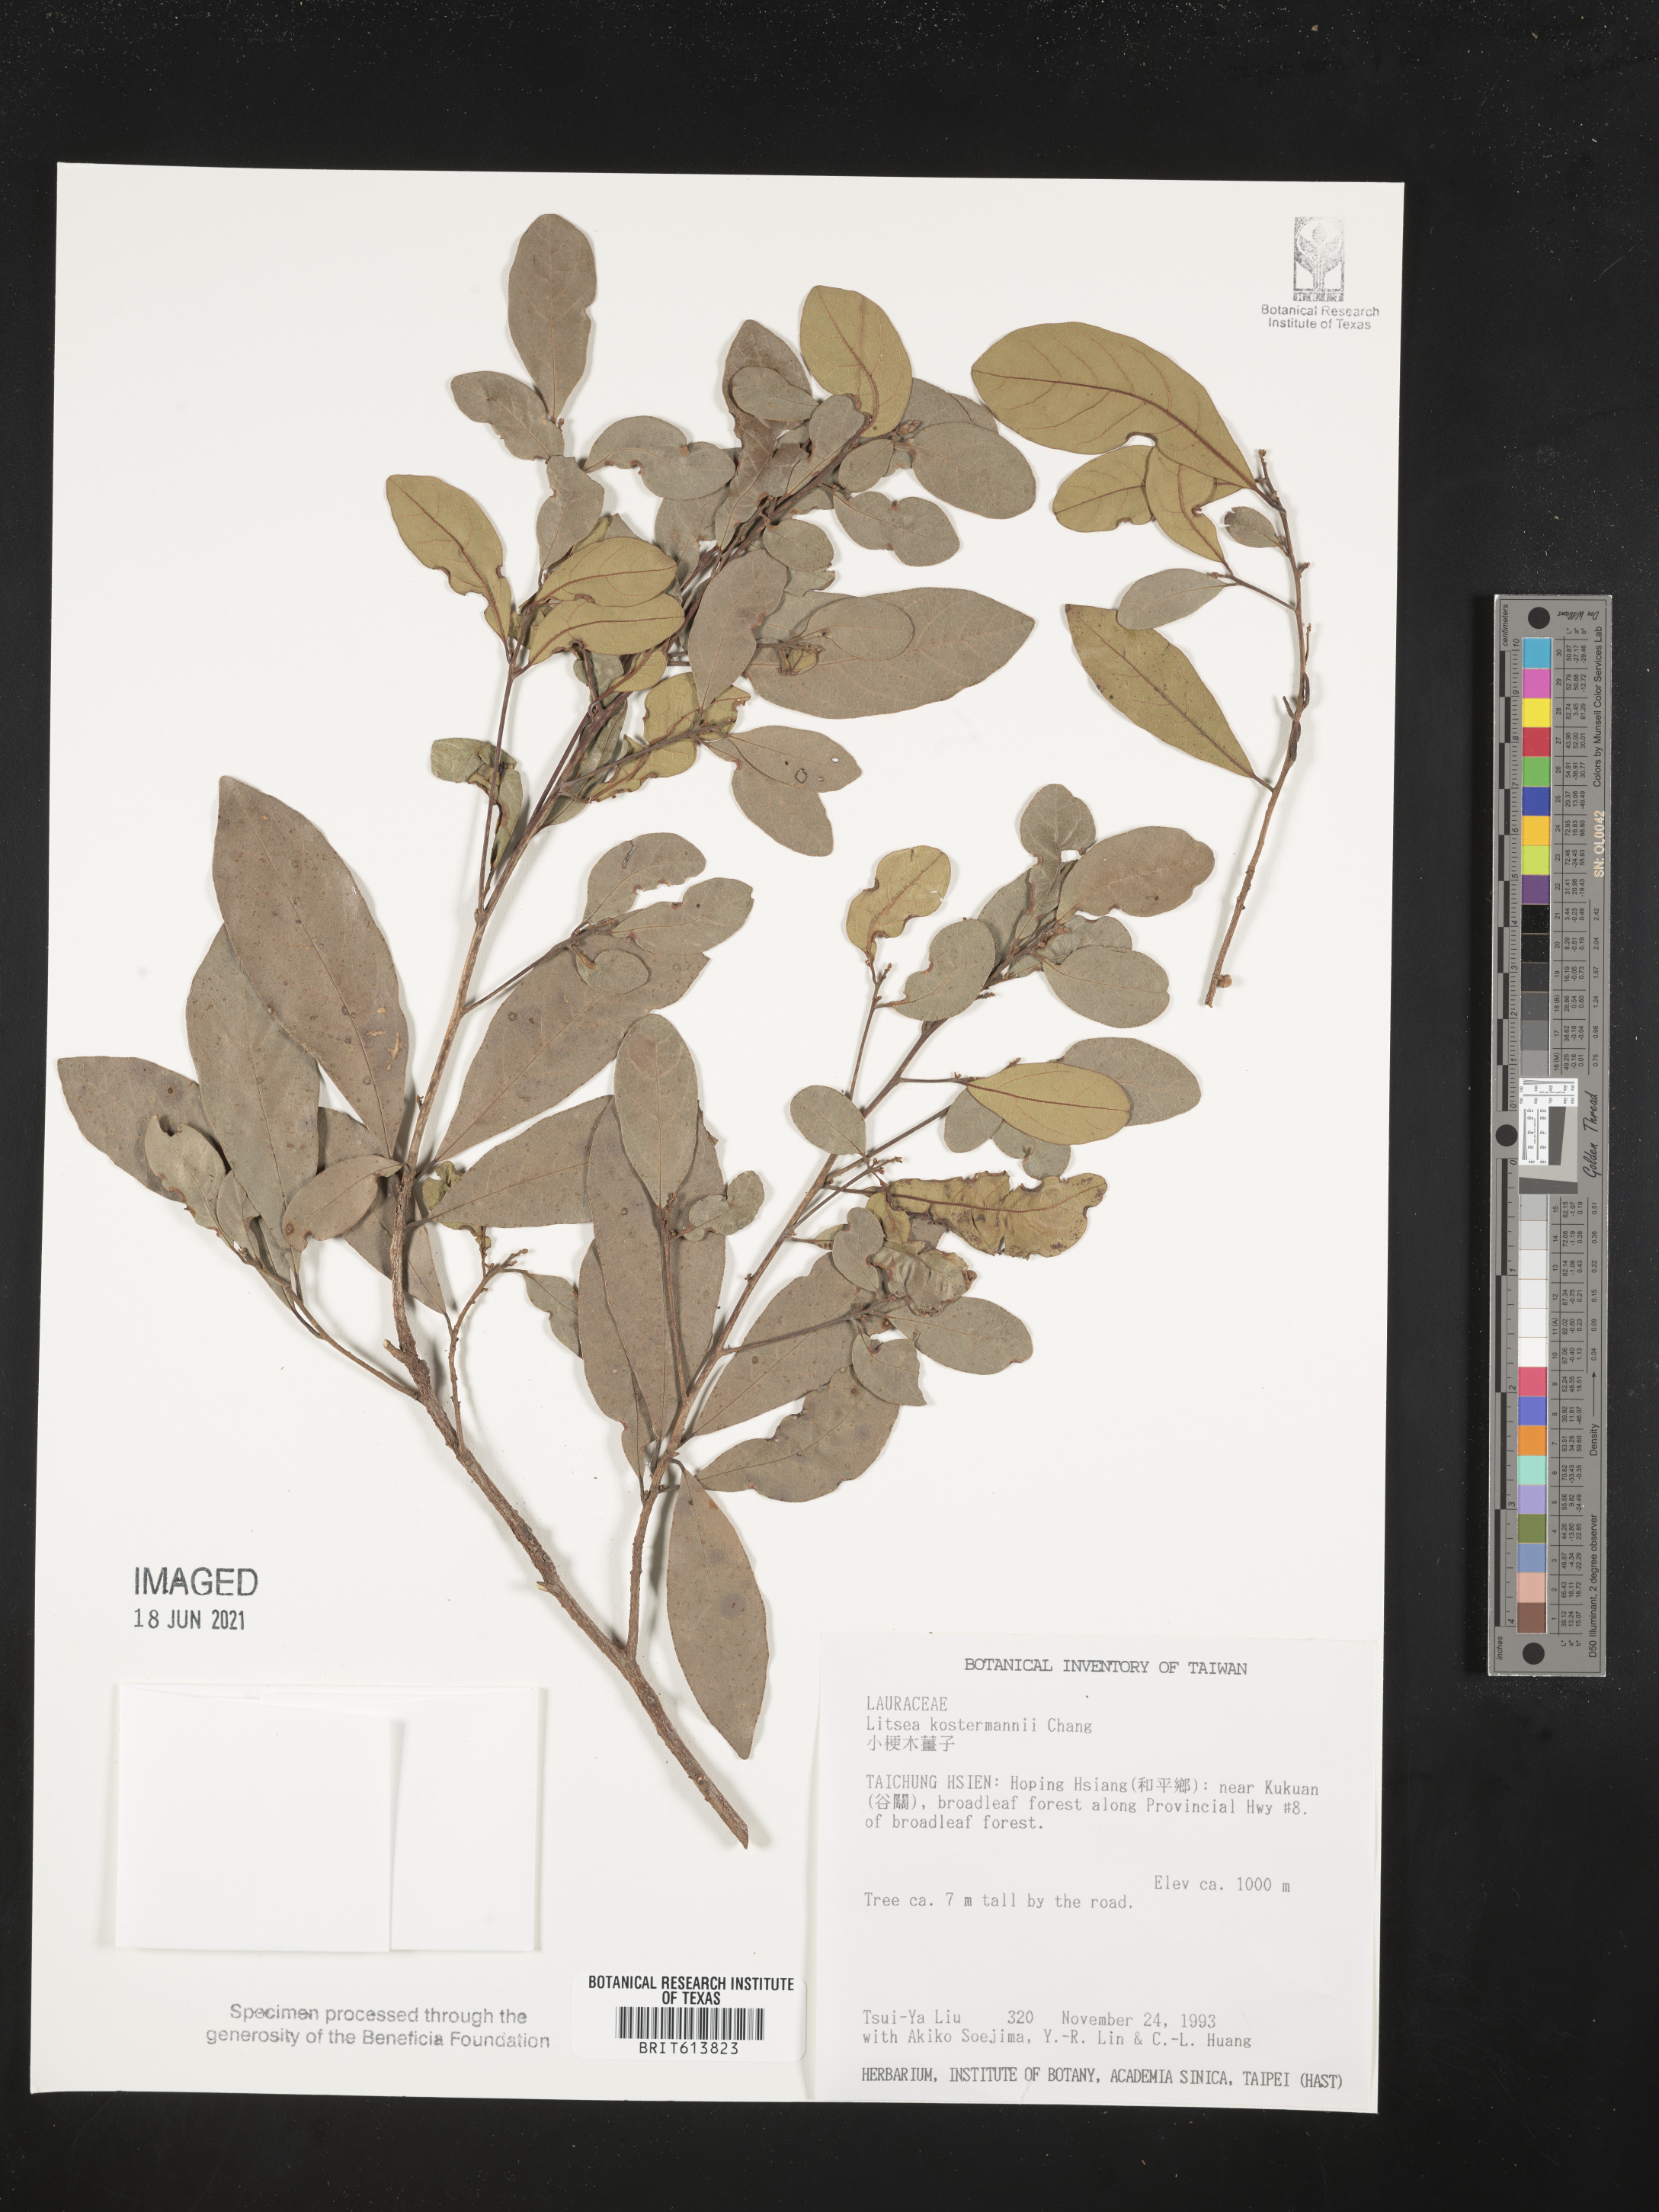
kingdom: Plantae
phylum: Tracheophyta
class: Magnoliopsida
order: Laurales
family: Lauraceae
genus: Litsea
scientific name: Litsea hypophaea
